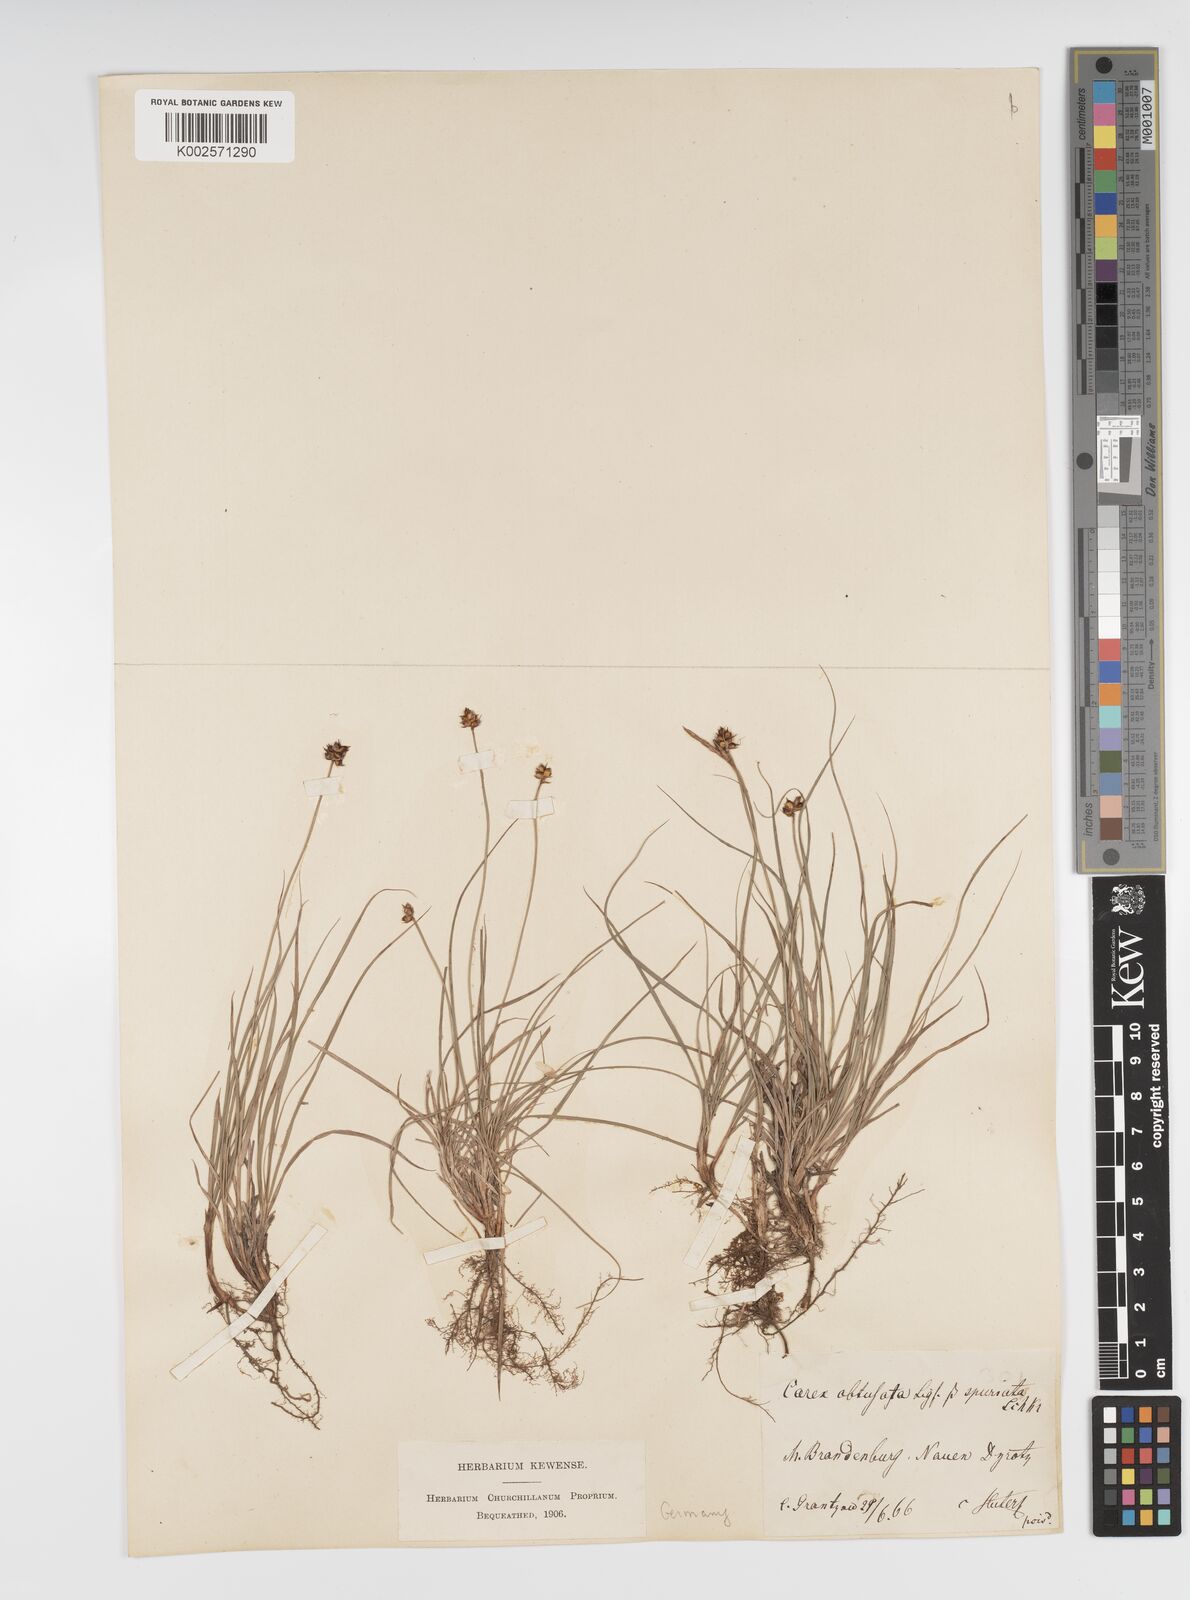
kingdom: Plantae
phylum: Tracheophyta
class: Liliopsida
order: Poales
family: Cyperaceae
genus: Carex
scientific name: Carex supina
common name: Lying-back sedge
